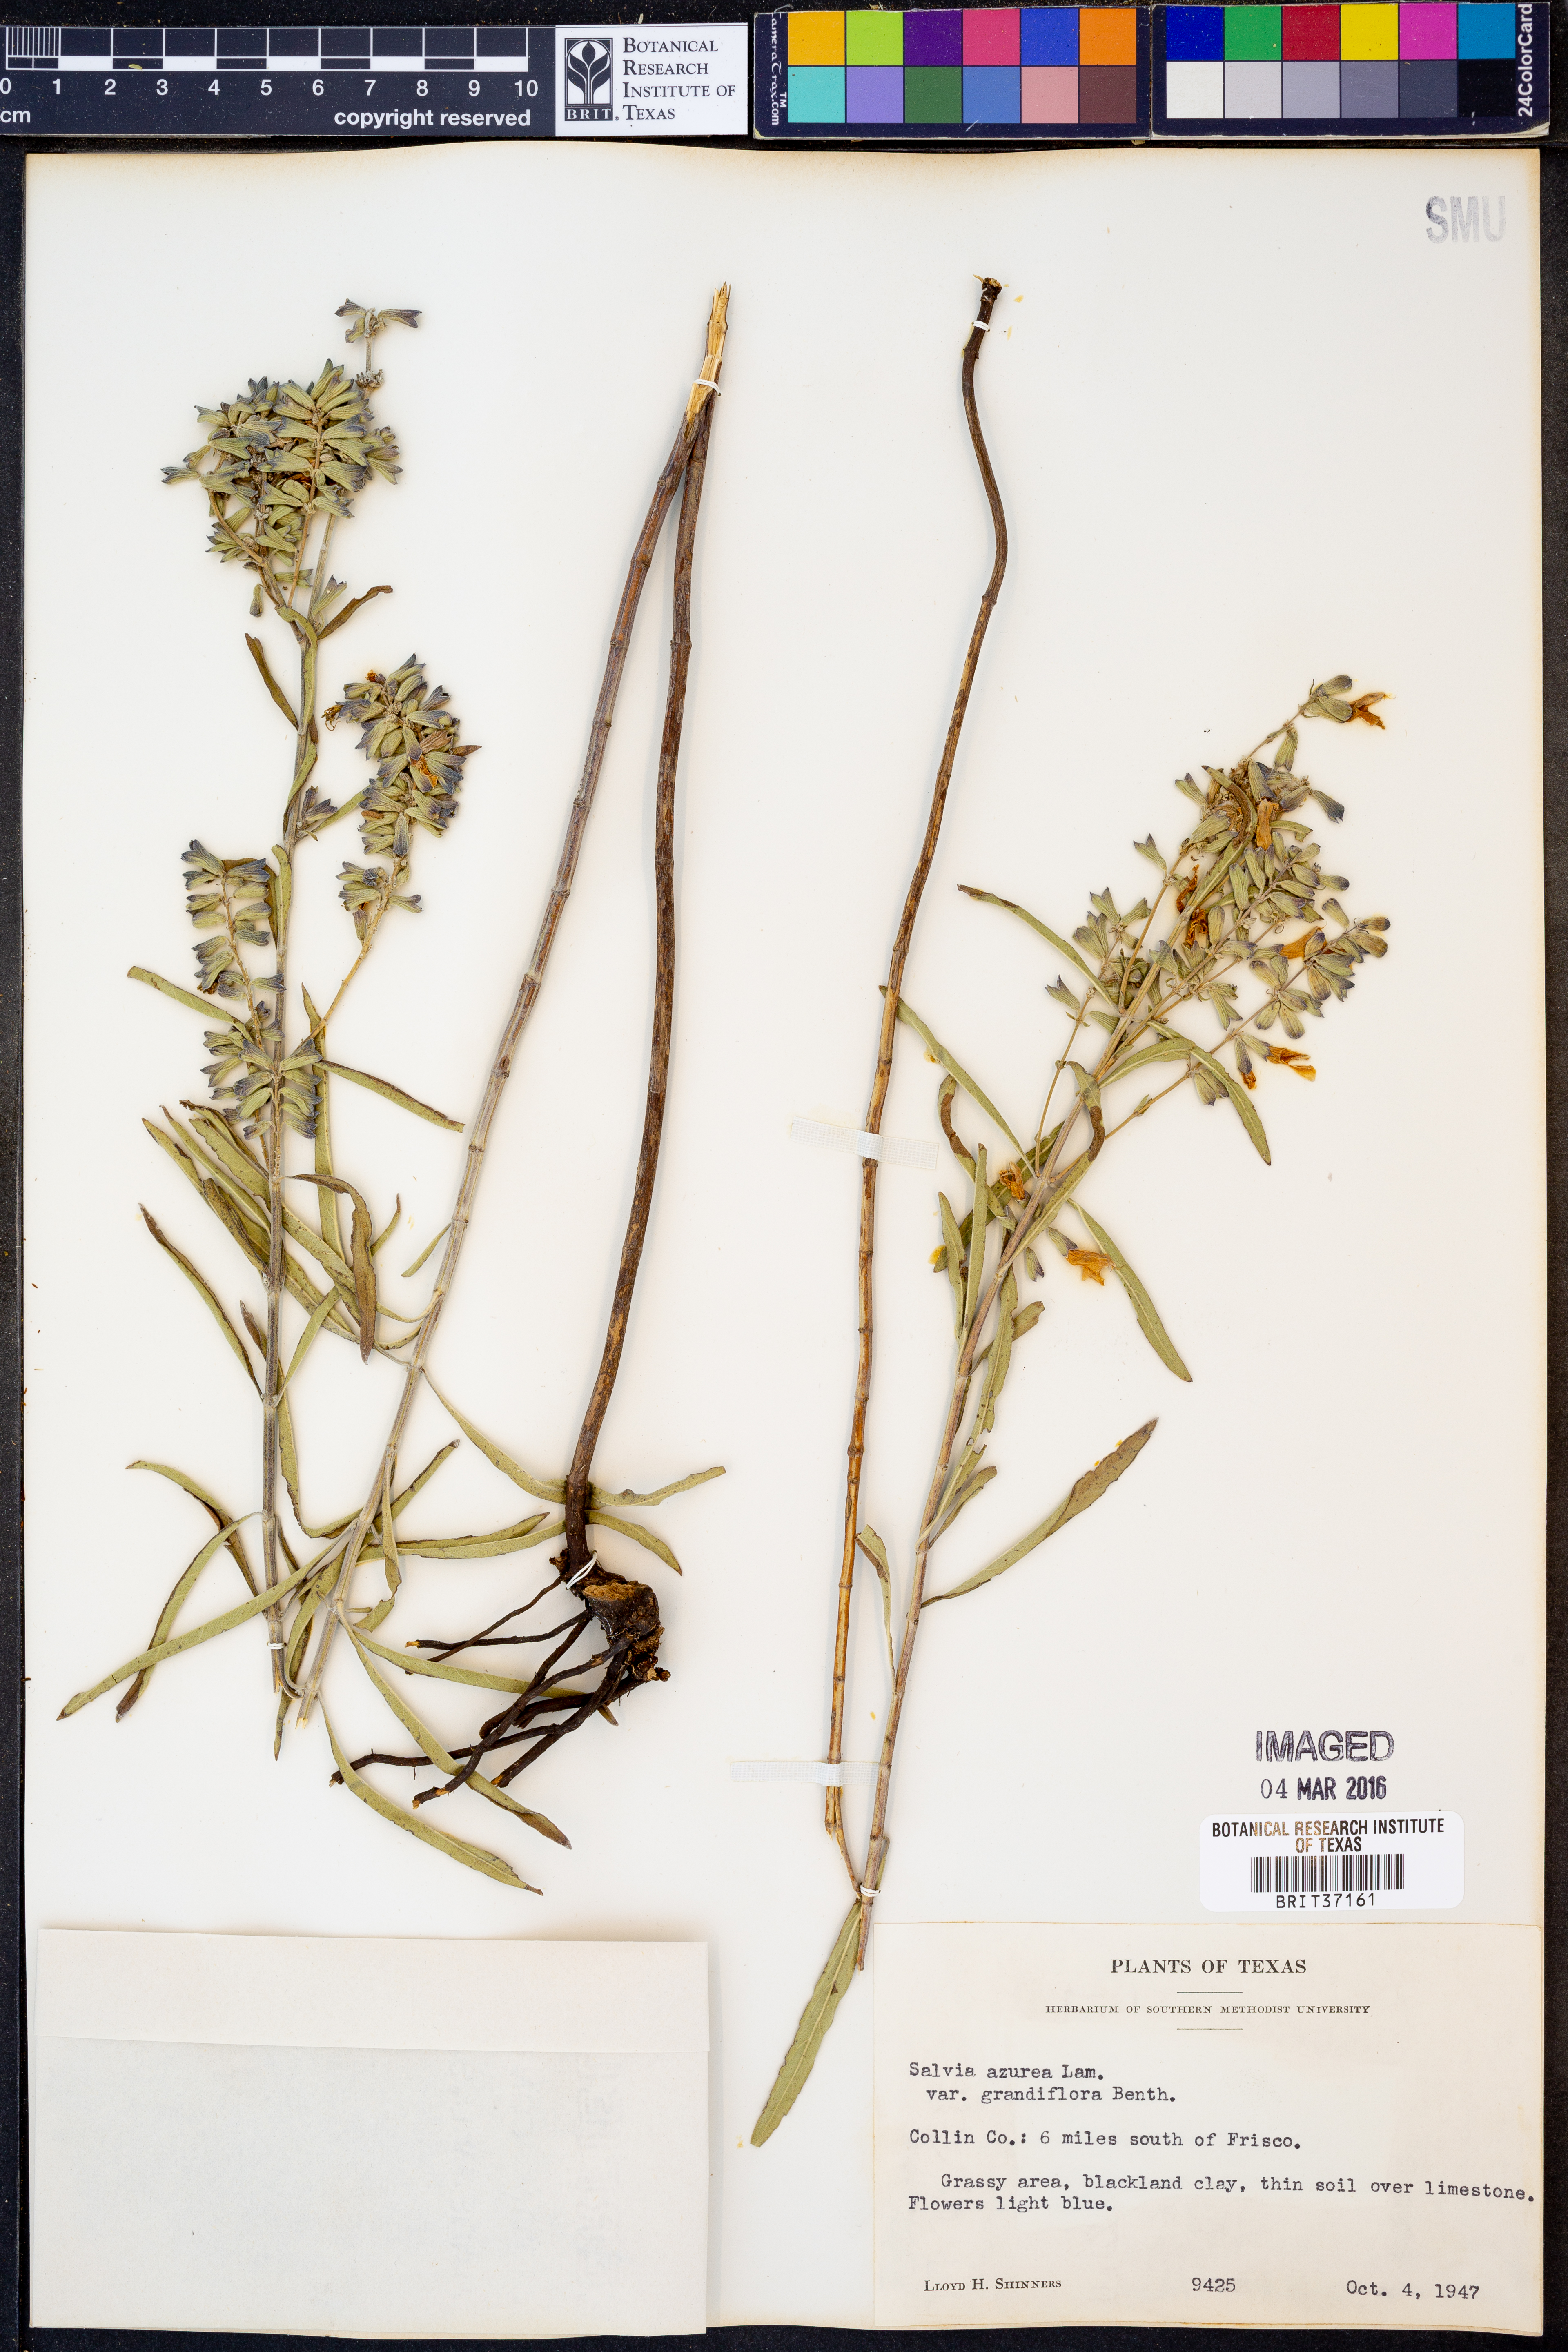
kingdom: Plantae
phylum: Tracheophyta
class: Magnoliopsida
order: Lamiales
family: Lamiaceae
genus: Salvia
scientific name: Salvia azurea
